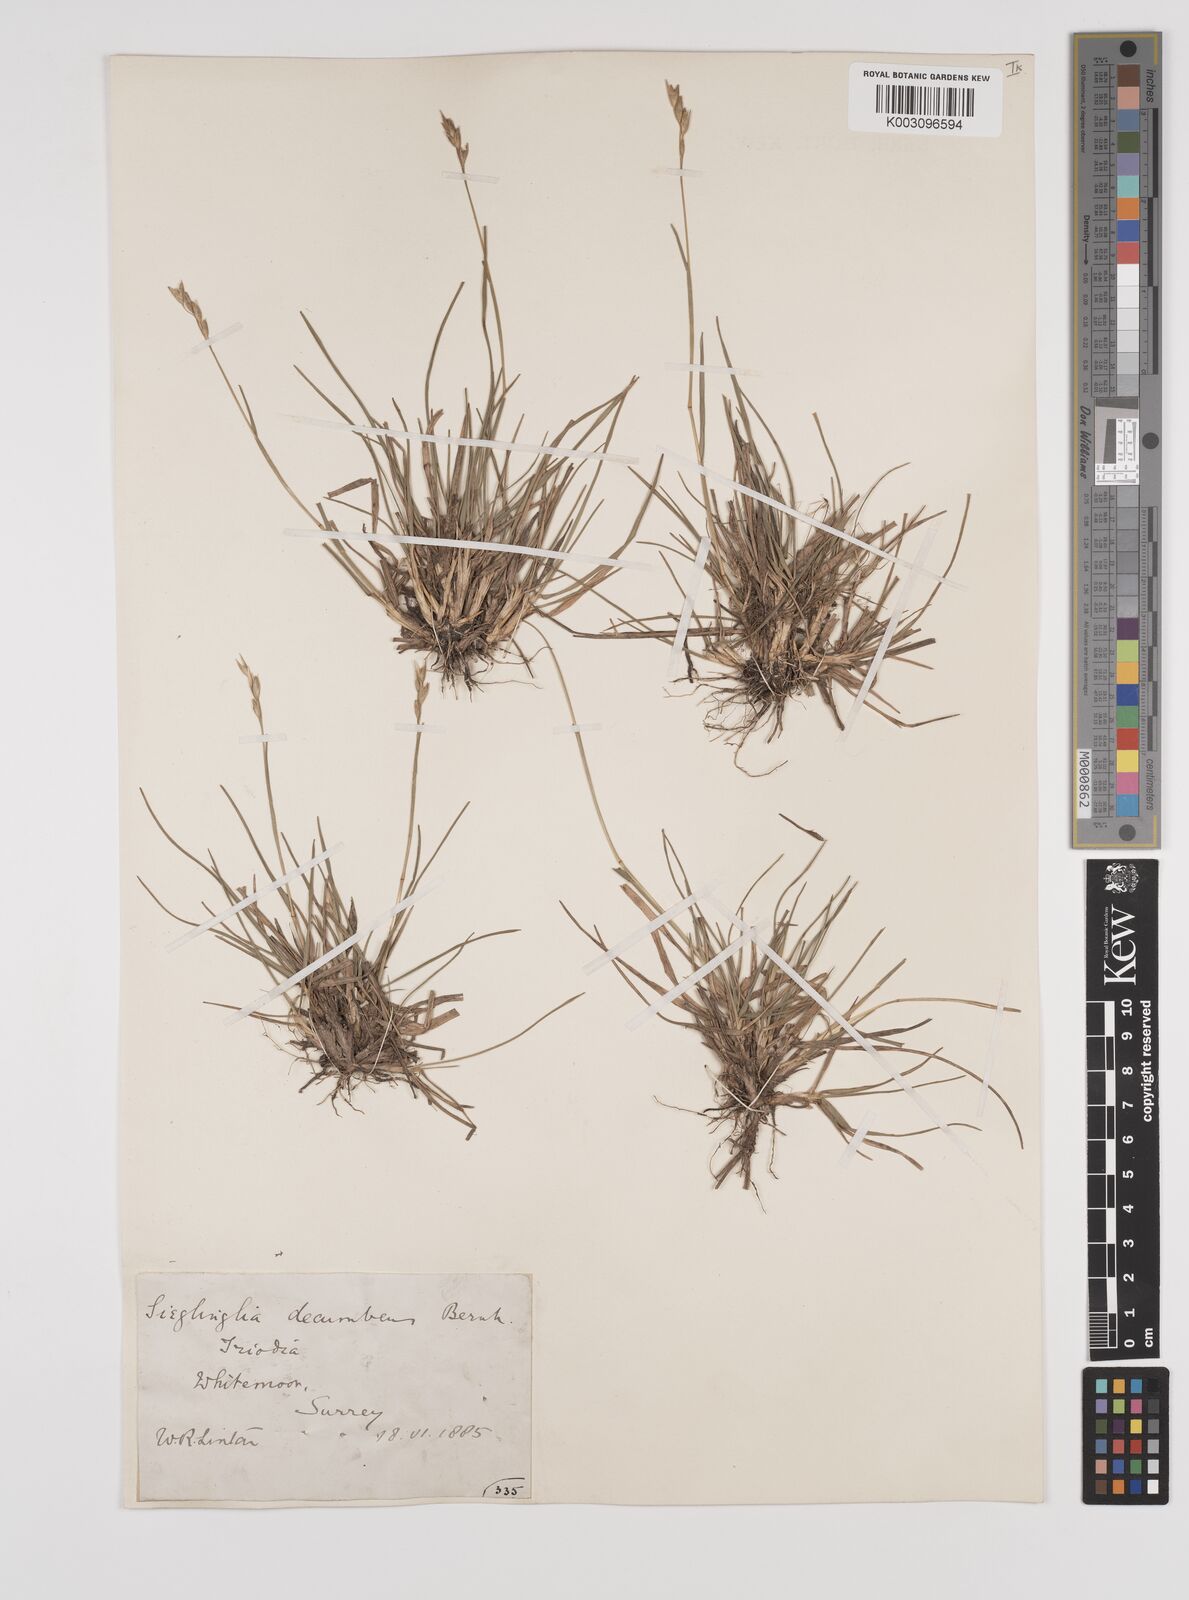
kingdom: Plantae
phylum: Tracheophyta
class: Liliopsida
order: Poales
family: Poaceae
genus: Danthonia
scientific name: Danthonia decumbens
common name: Common heathgrass
